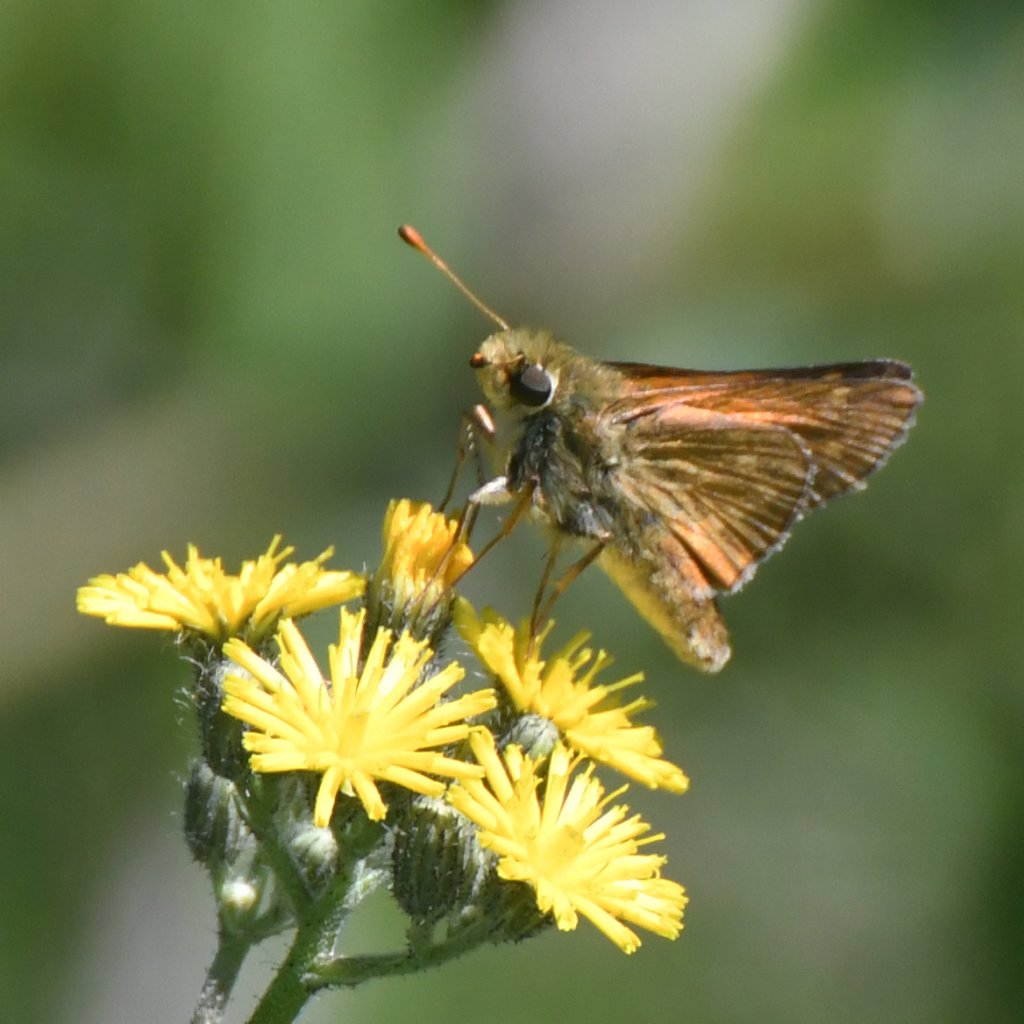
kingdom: Animalia
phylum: Arthropoda
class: Insecta
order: Lepidoptera
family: Hesperiidae
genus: Hesperia
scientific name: Hesperia sassacus
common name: Sassacus Skipper
